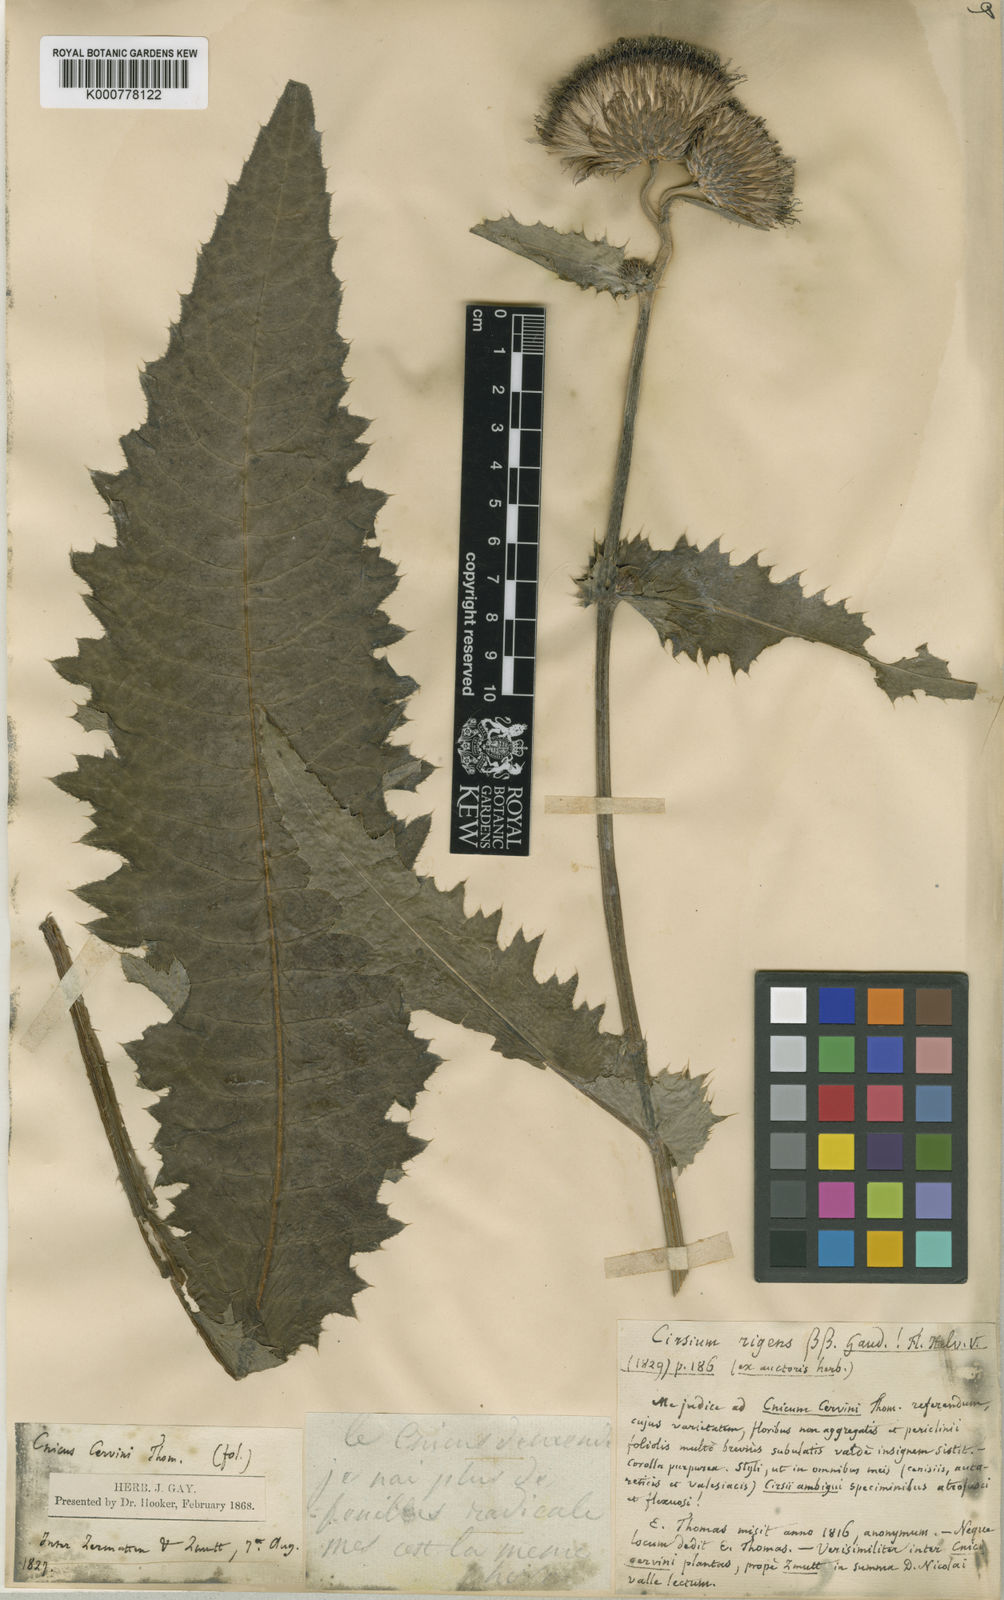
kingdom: Plantae
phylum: Tracheophyta
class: Magnoliopsida
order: Asterales
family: Asteraceae
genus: Cirsium
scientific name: Cirsium spinosissimum
